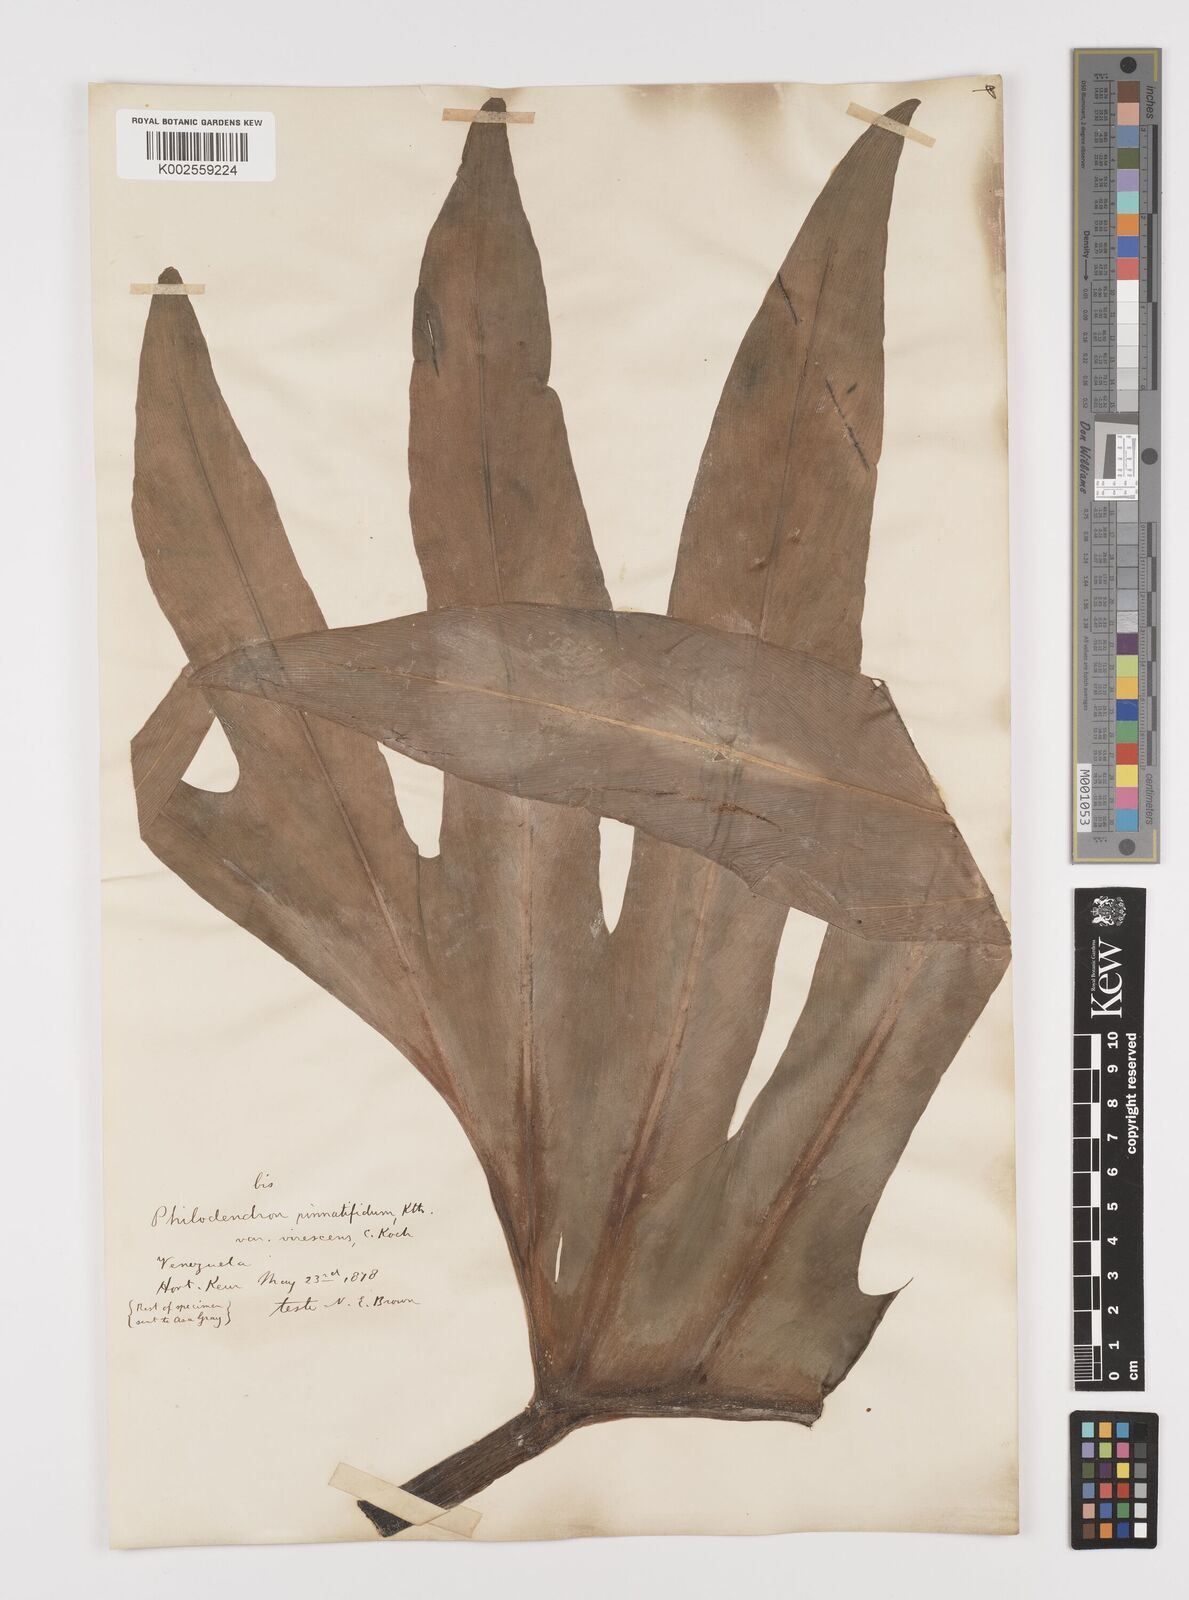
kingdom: Plantae
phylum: Tracheophyta
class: Liliopsida
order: Alismatales
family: Araceae
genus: Philodendron
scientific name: Philodendron pinnatifidum
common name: Comb-leaf philodendron
